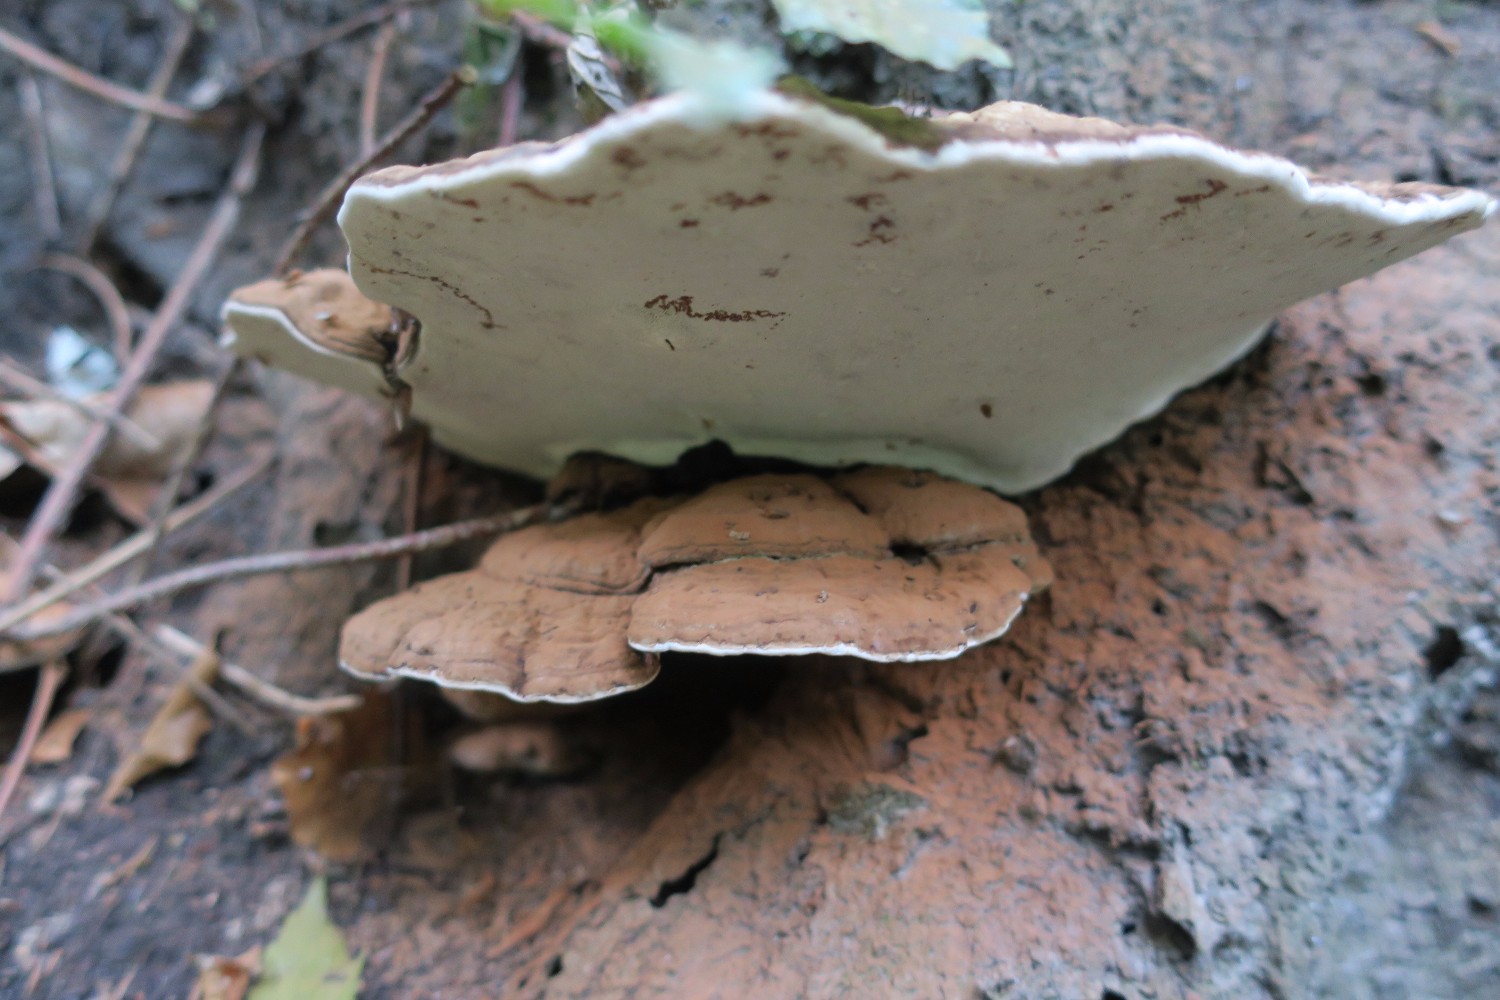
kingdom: Fungi
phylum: Basidiomycota
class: Agaricomycetes
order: Polyporales
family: Polyporaceae
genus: Ganoderma
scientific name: Ganoderma applanatum
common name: flad lakporesvamp
